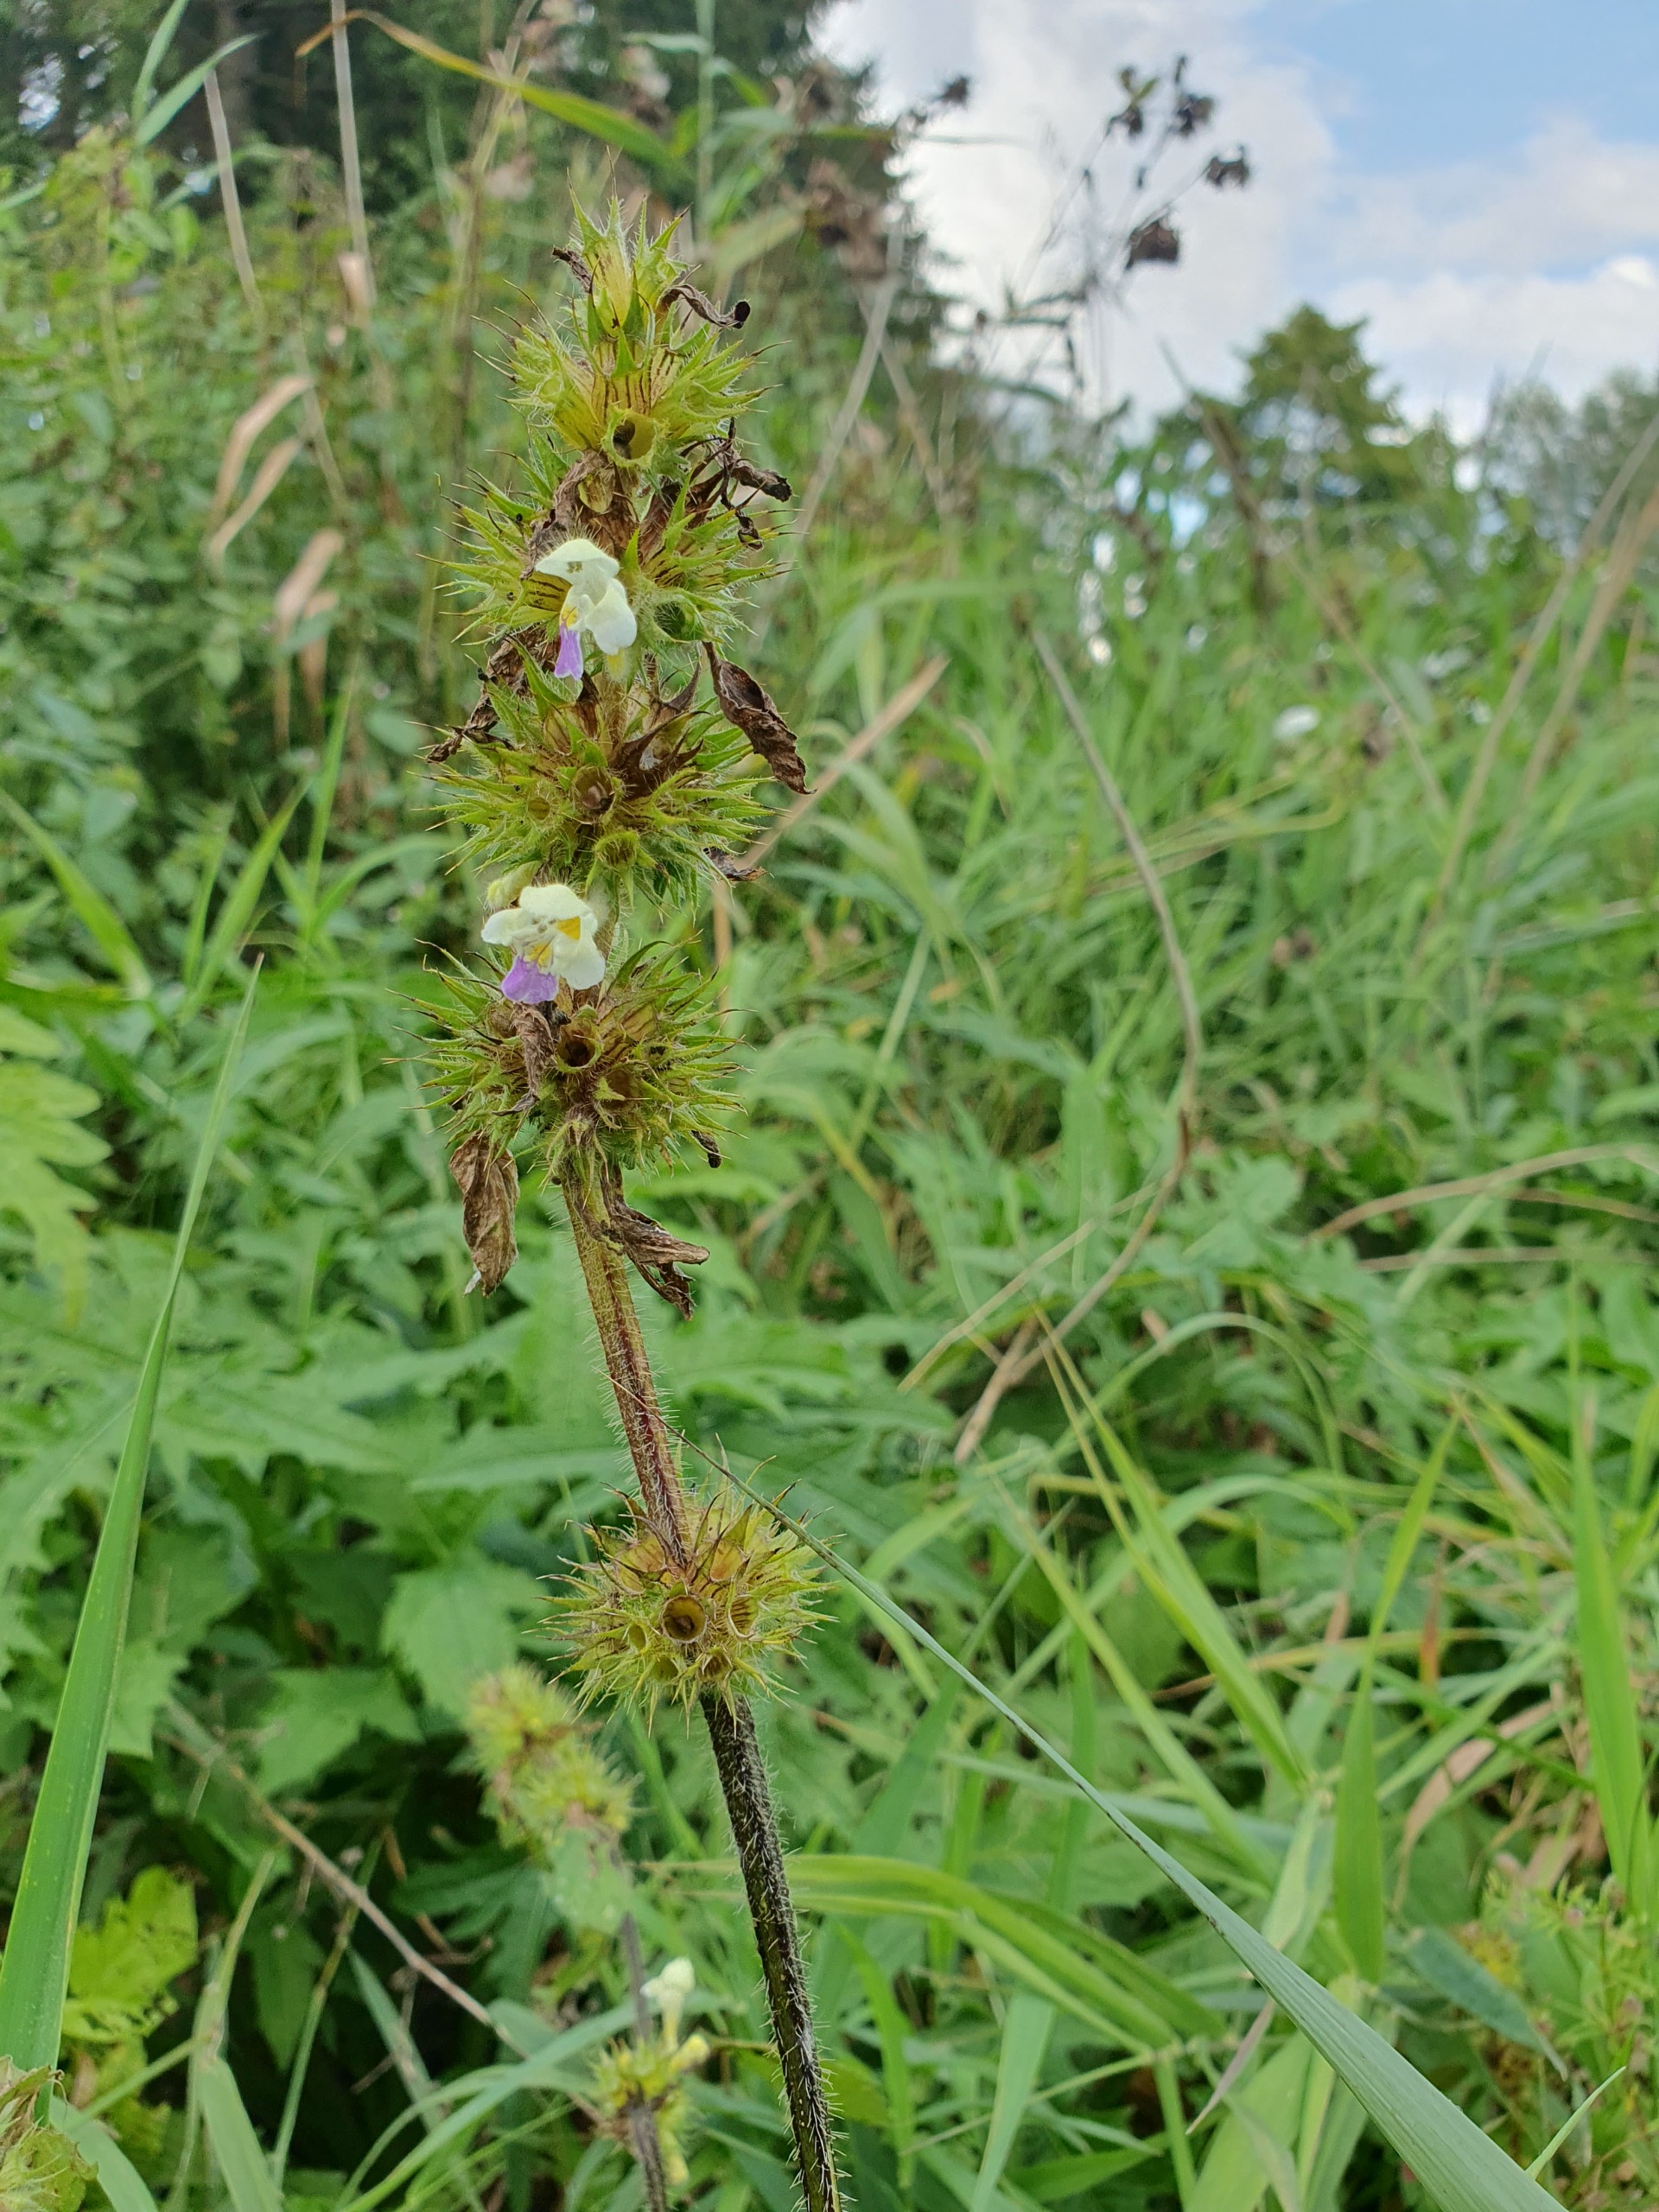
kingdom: Plantae
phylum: Tracheophyta
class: Magnoliopsida
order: Lamiales
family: Lamiaceae
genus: Galeopsis
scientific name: Galeopsis speciosa
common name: Hamp-hanekro
